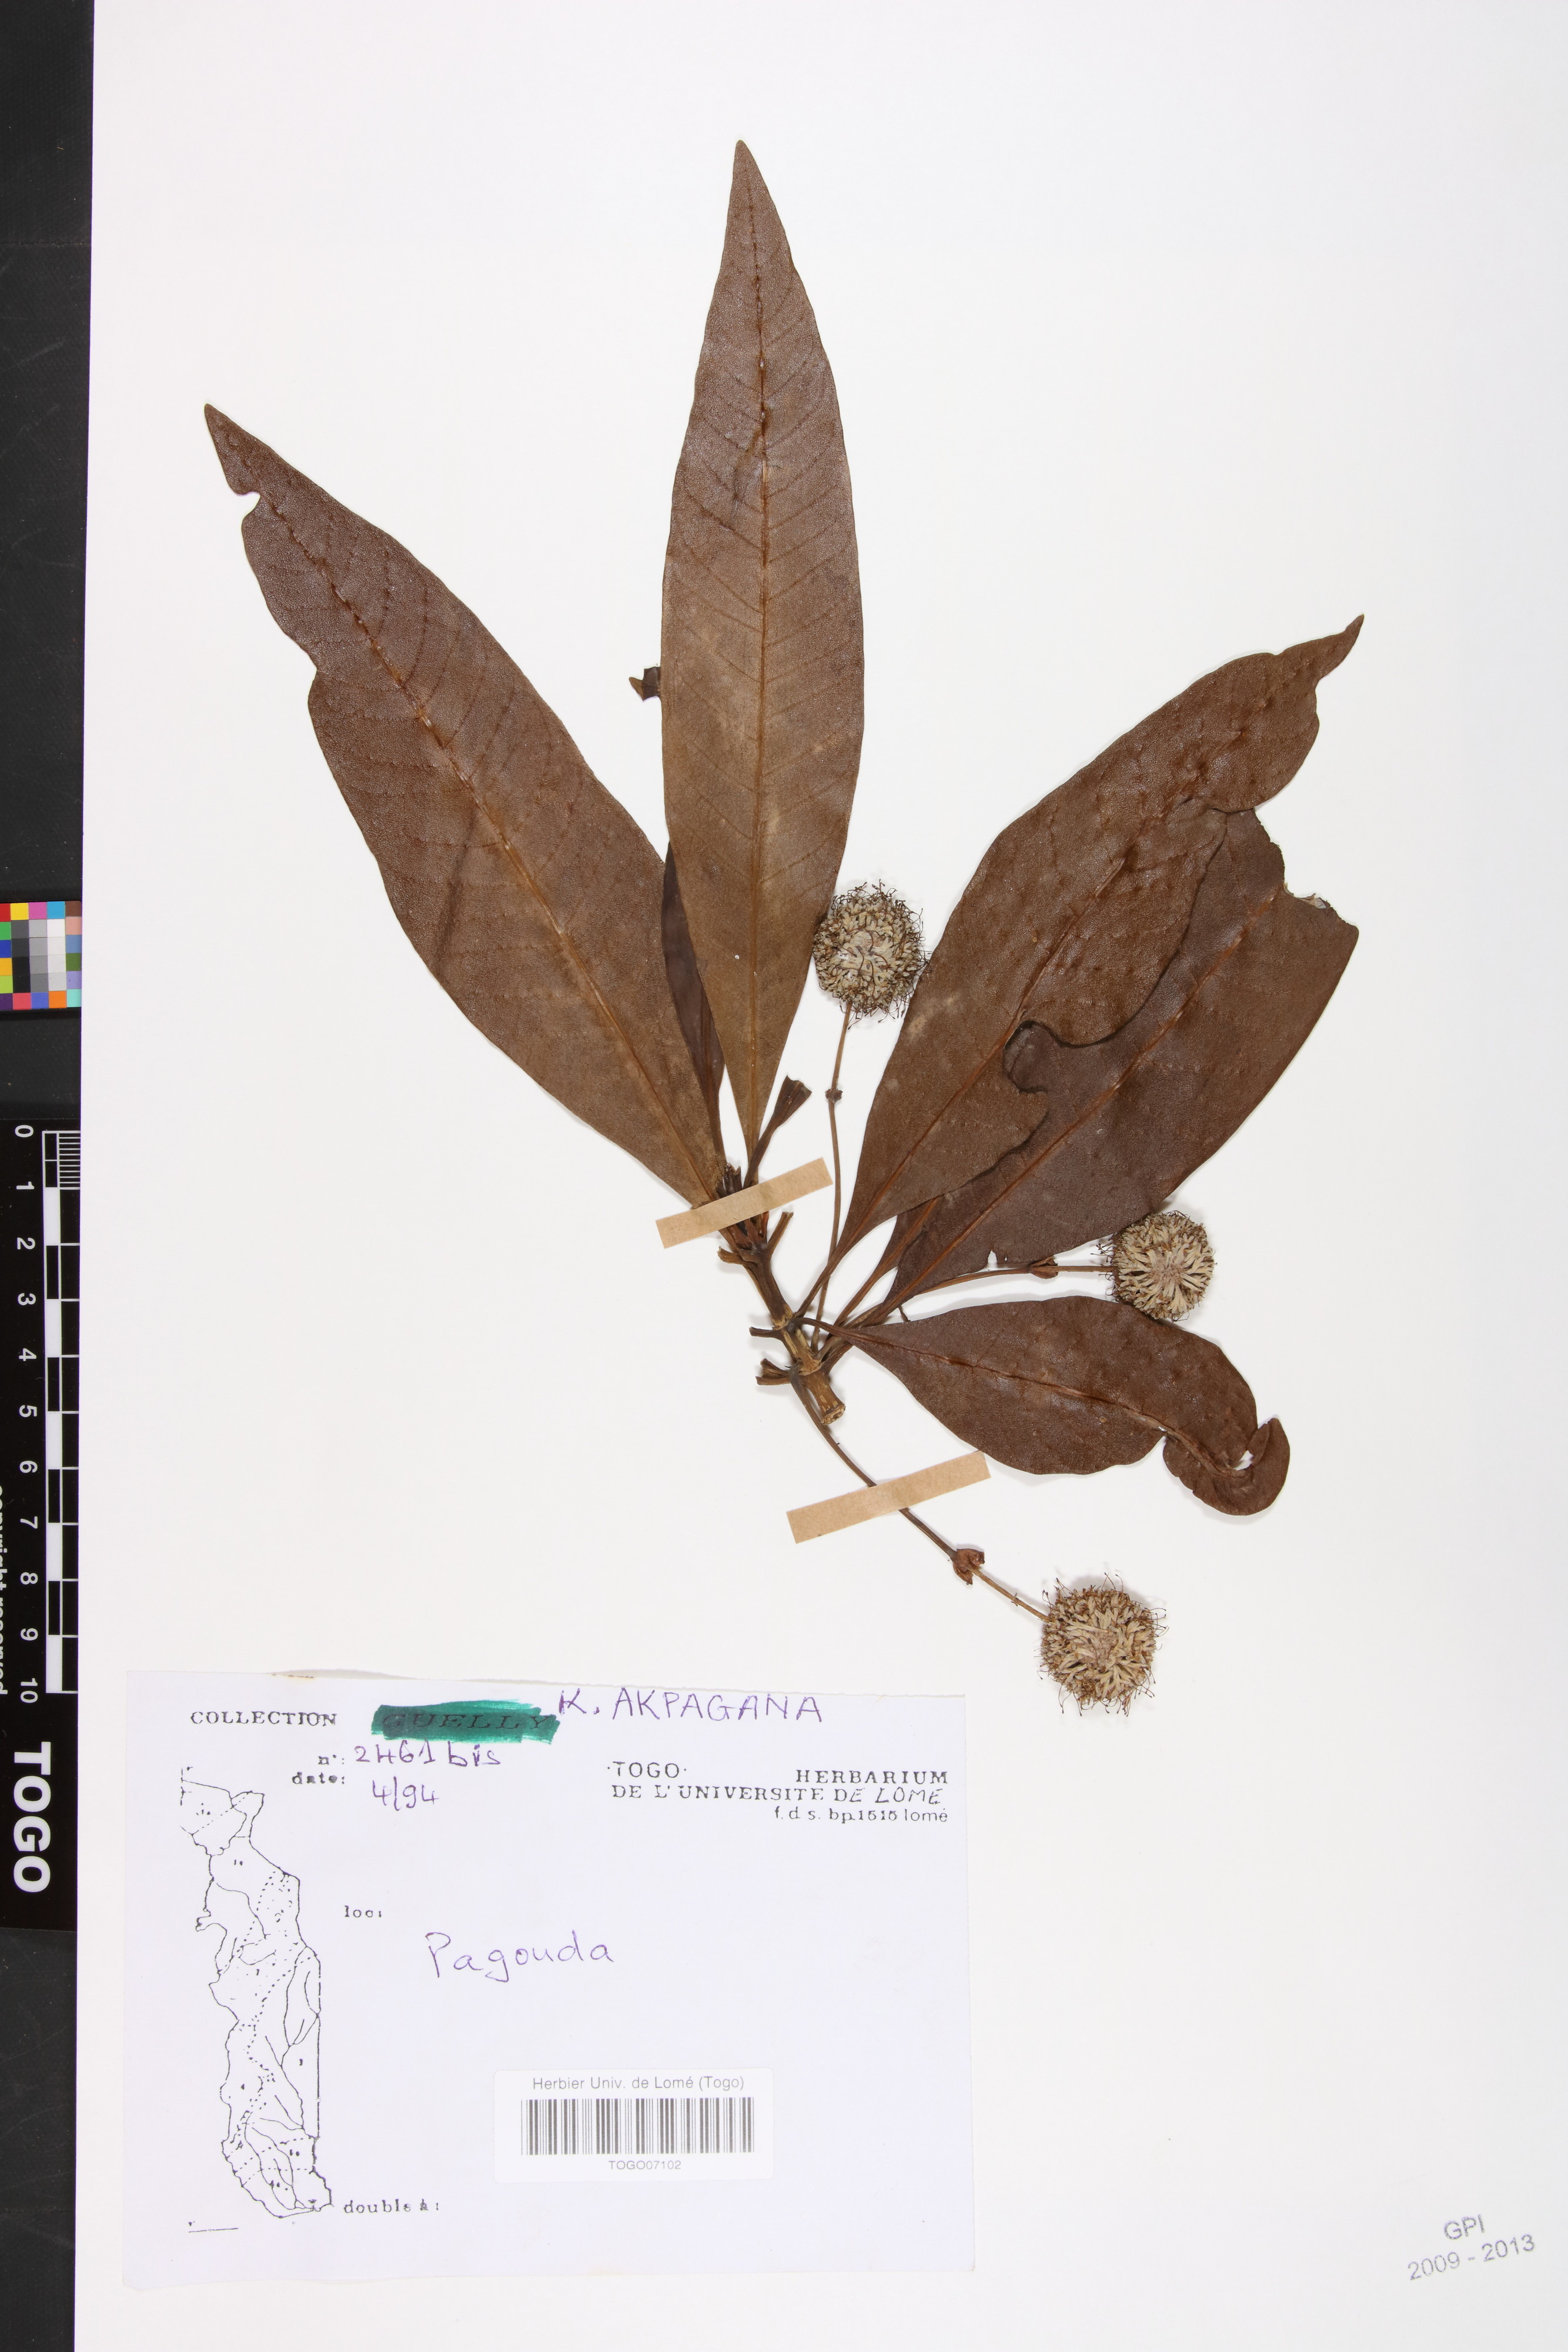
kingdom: Plantae
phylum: Tracheophyta
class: Magnoliopsida
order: Gentianales
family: Rubiaceae
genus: Breonadia
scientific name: Breonadia salicina
